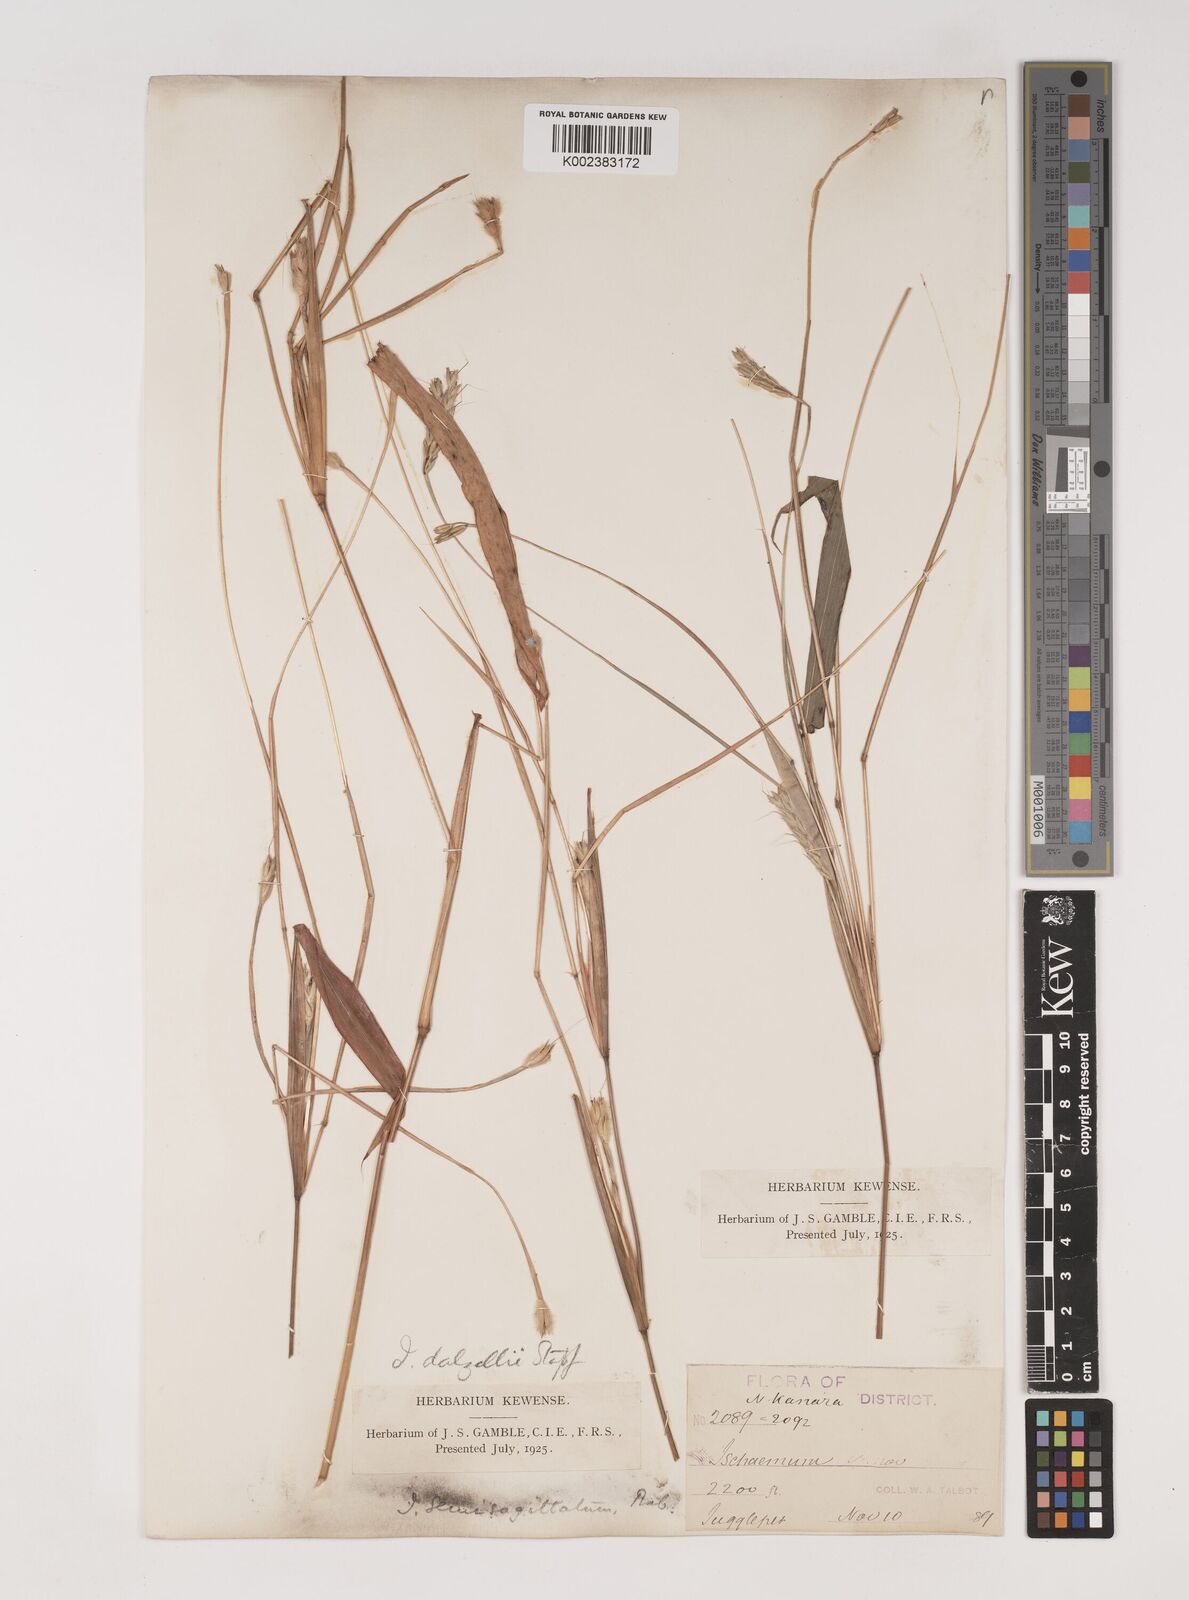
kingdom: Plantae
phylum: Tracheophyta
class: Liliopsida
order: Poales
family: Poaceae
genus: Ischaemum
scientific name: Ischaemum dalzellii
